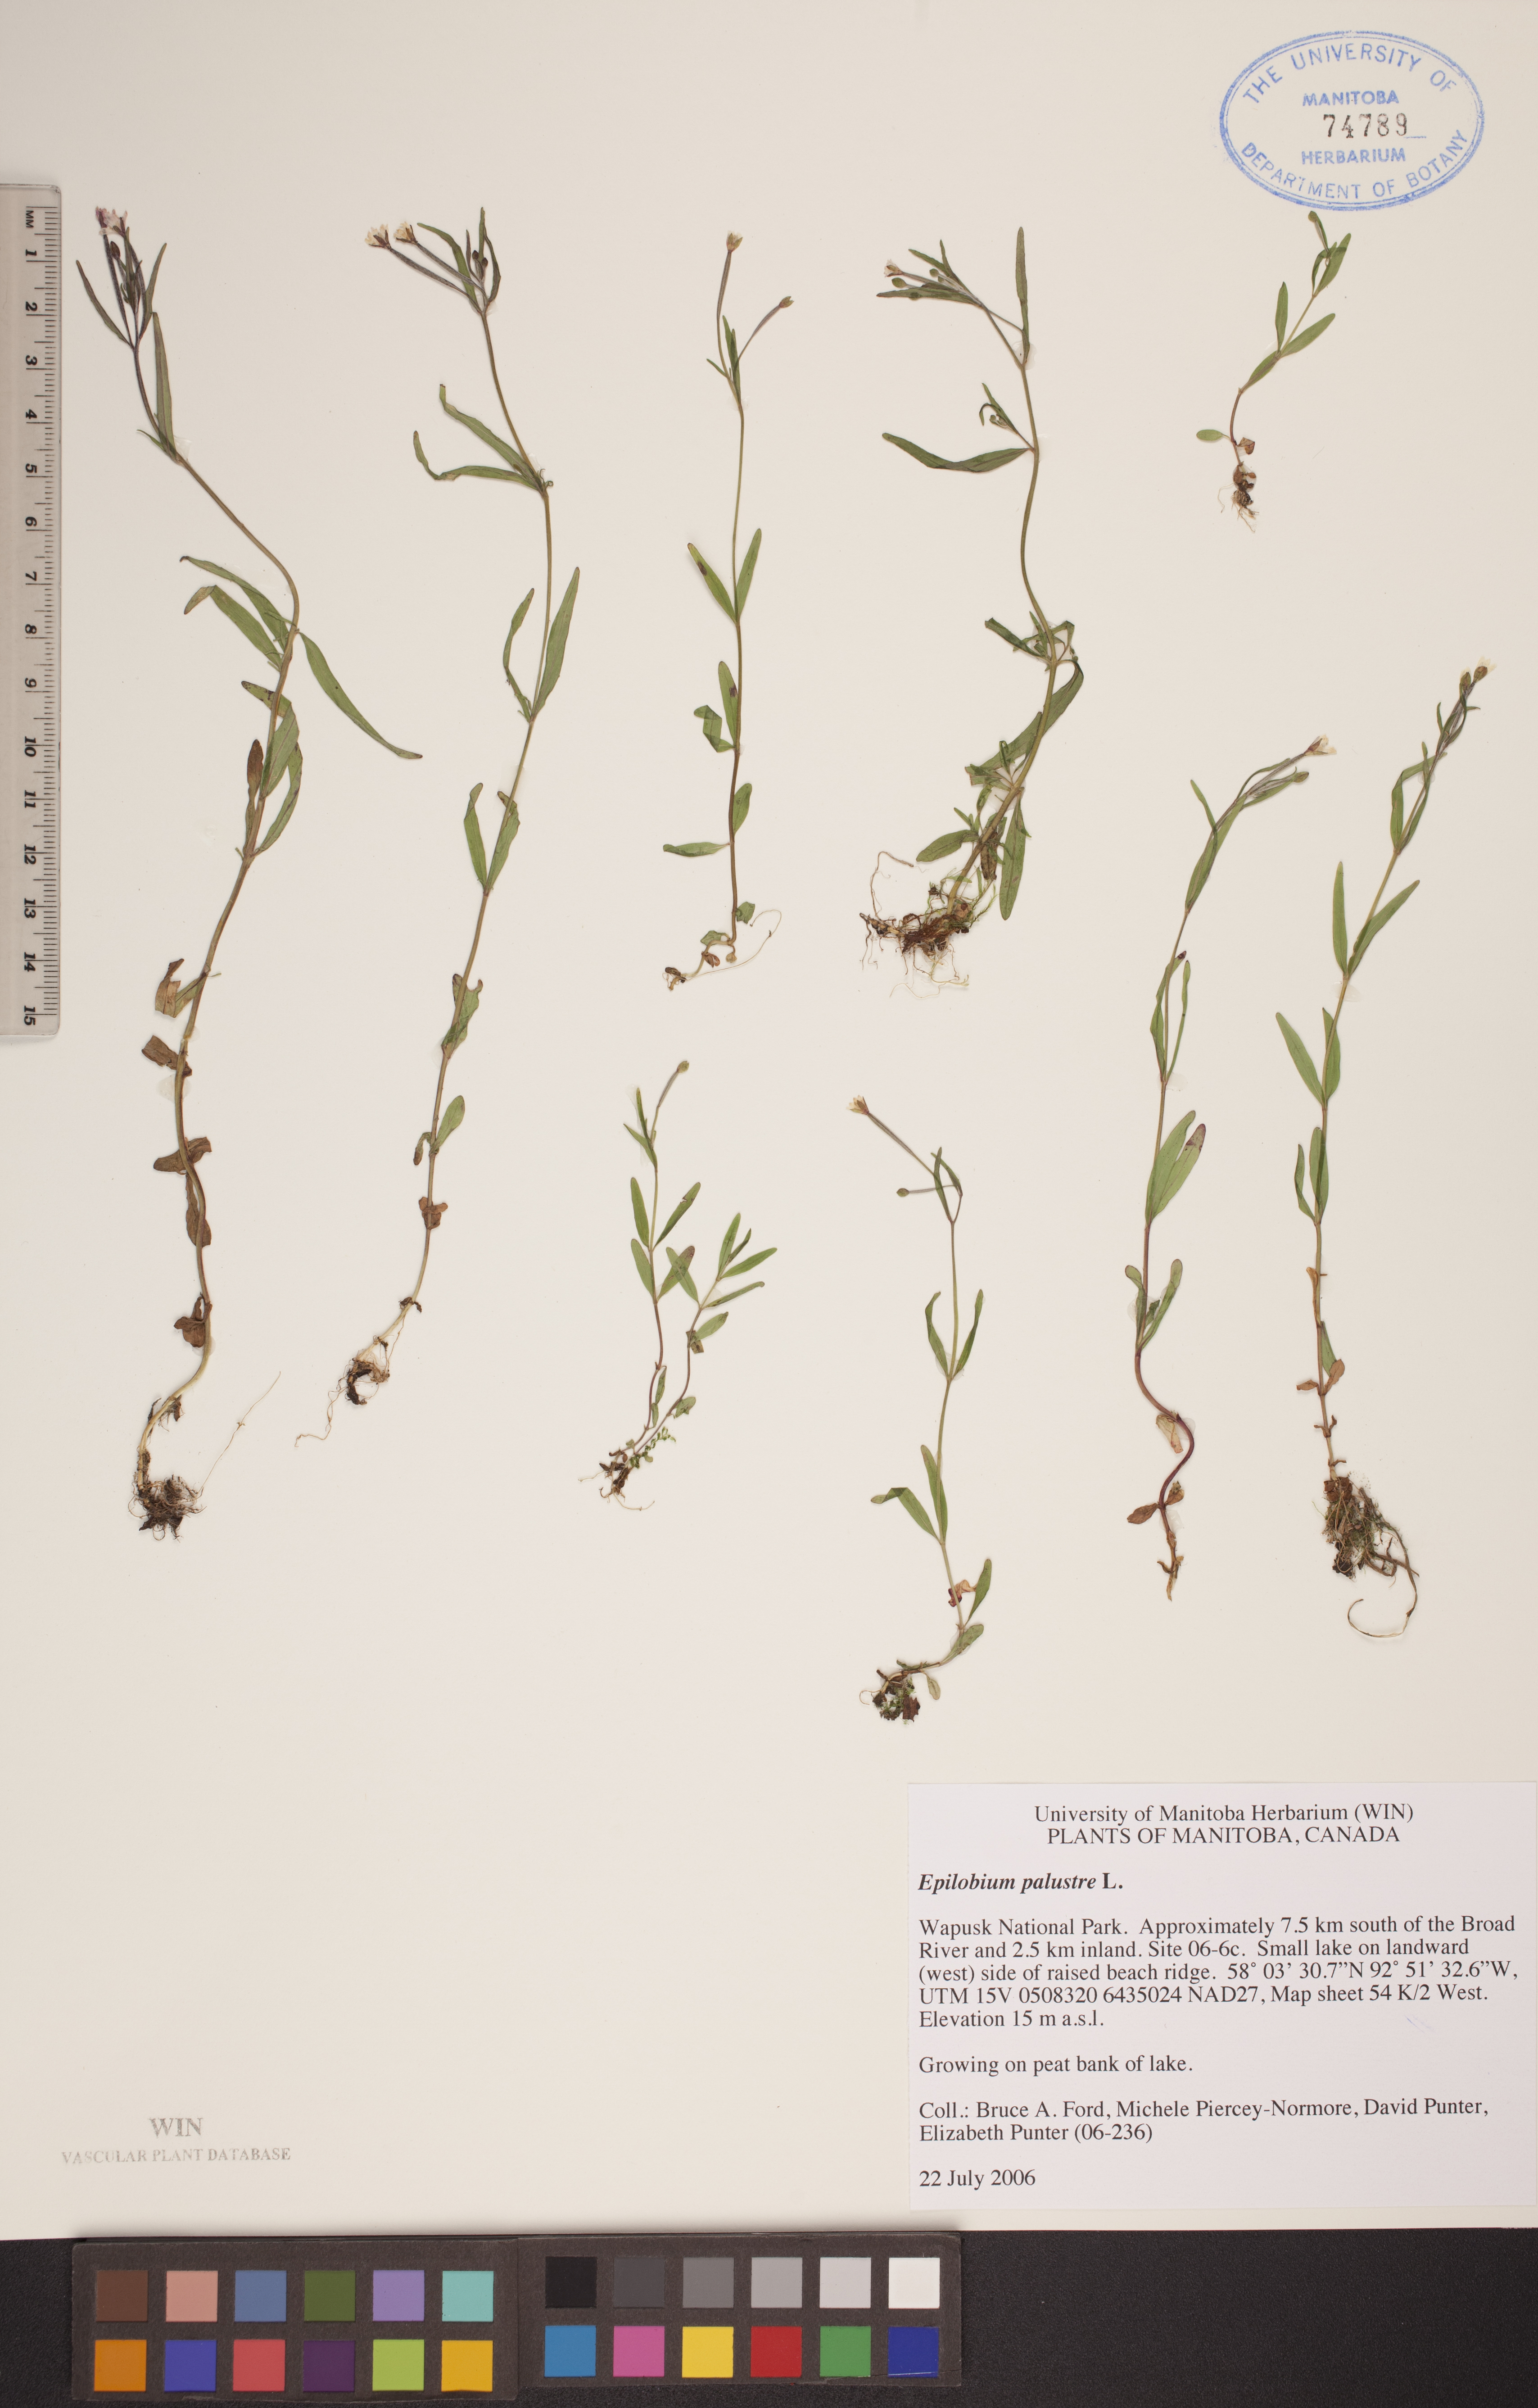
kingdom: Plantae
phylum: Tracheophyta
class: Magnoliopsida
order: Myrtales
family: Onagraceae
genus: Epilobium
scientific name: Epilobium palustre
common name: Marsh willowherb
